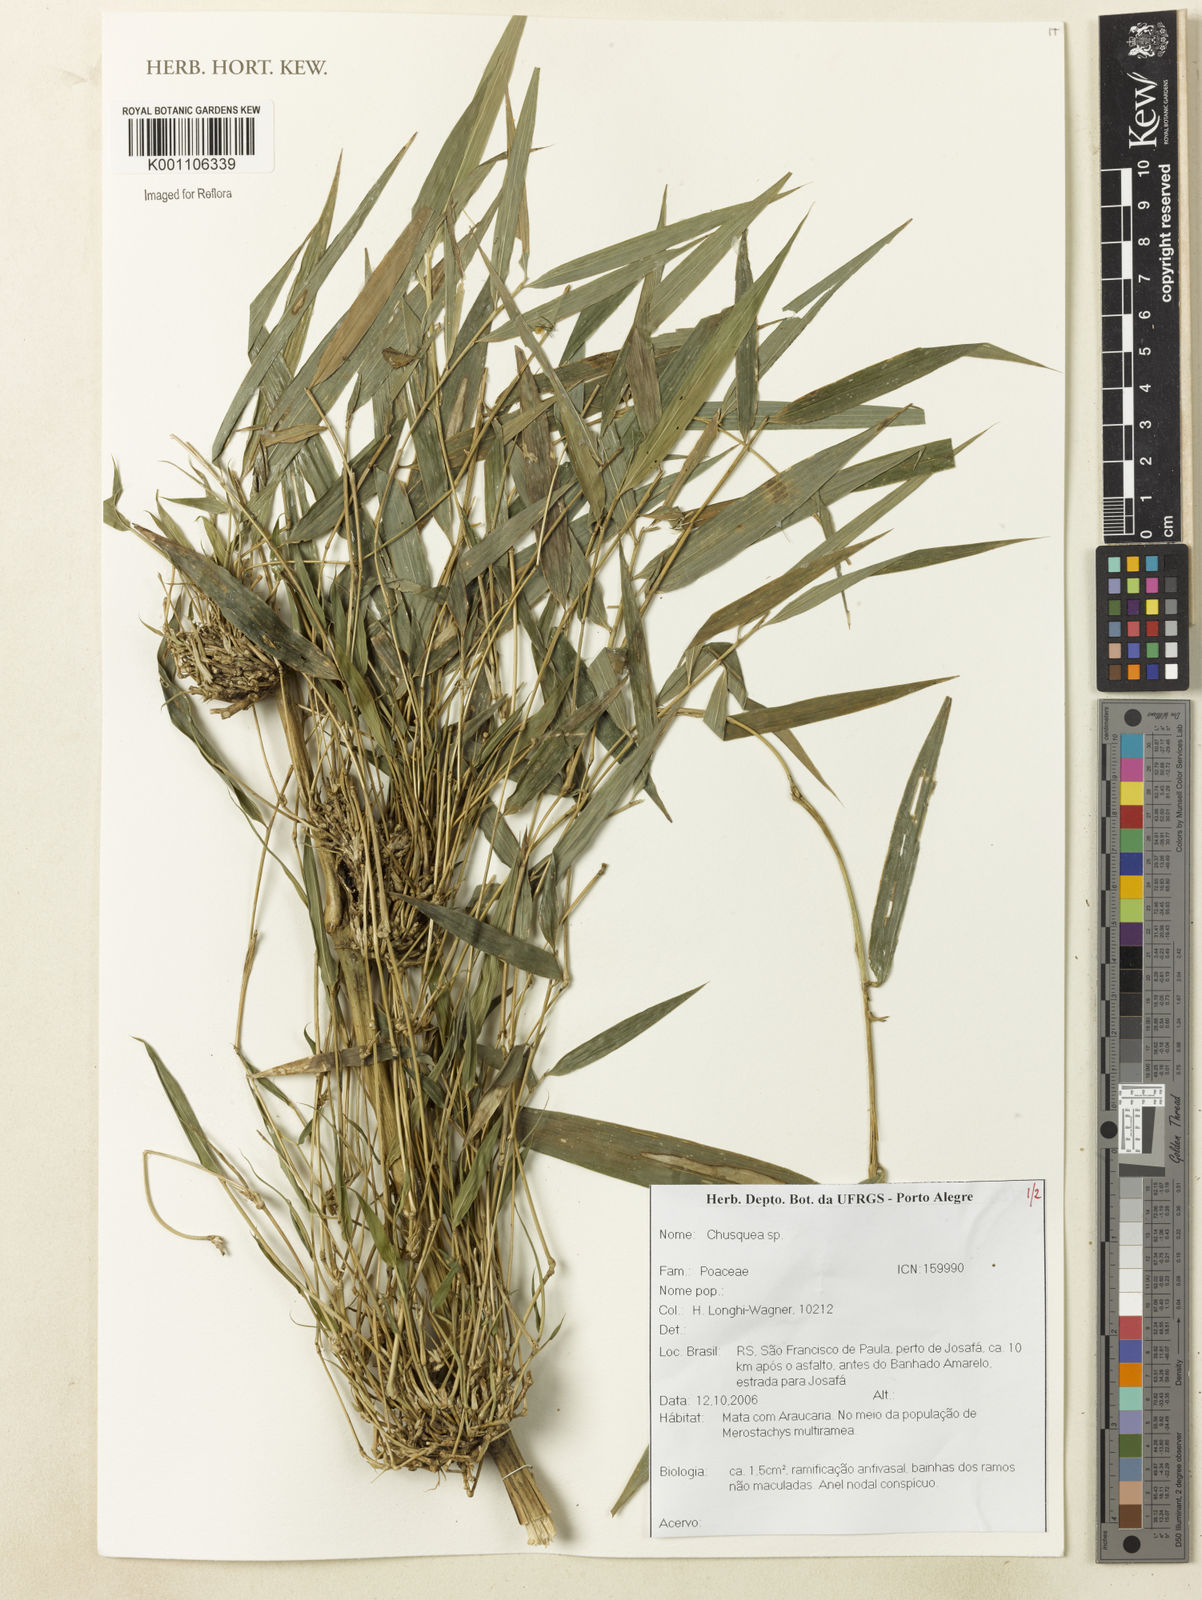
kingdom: Plantae
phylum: Tracheophyta
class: Liliopsida
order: Poales
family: Poaceae
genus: Chusquea
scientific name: Chusquea
